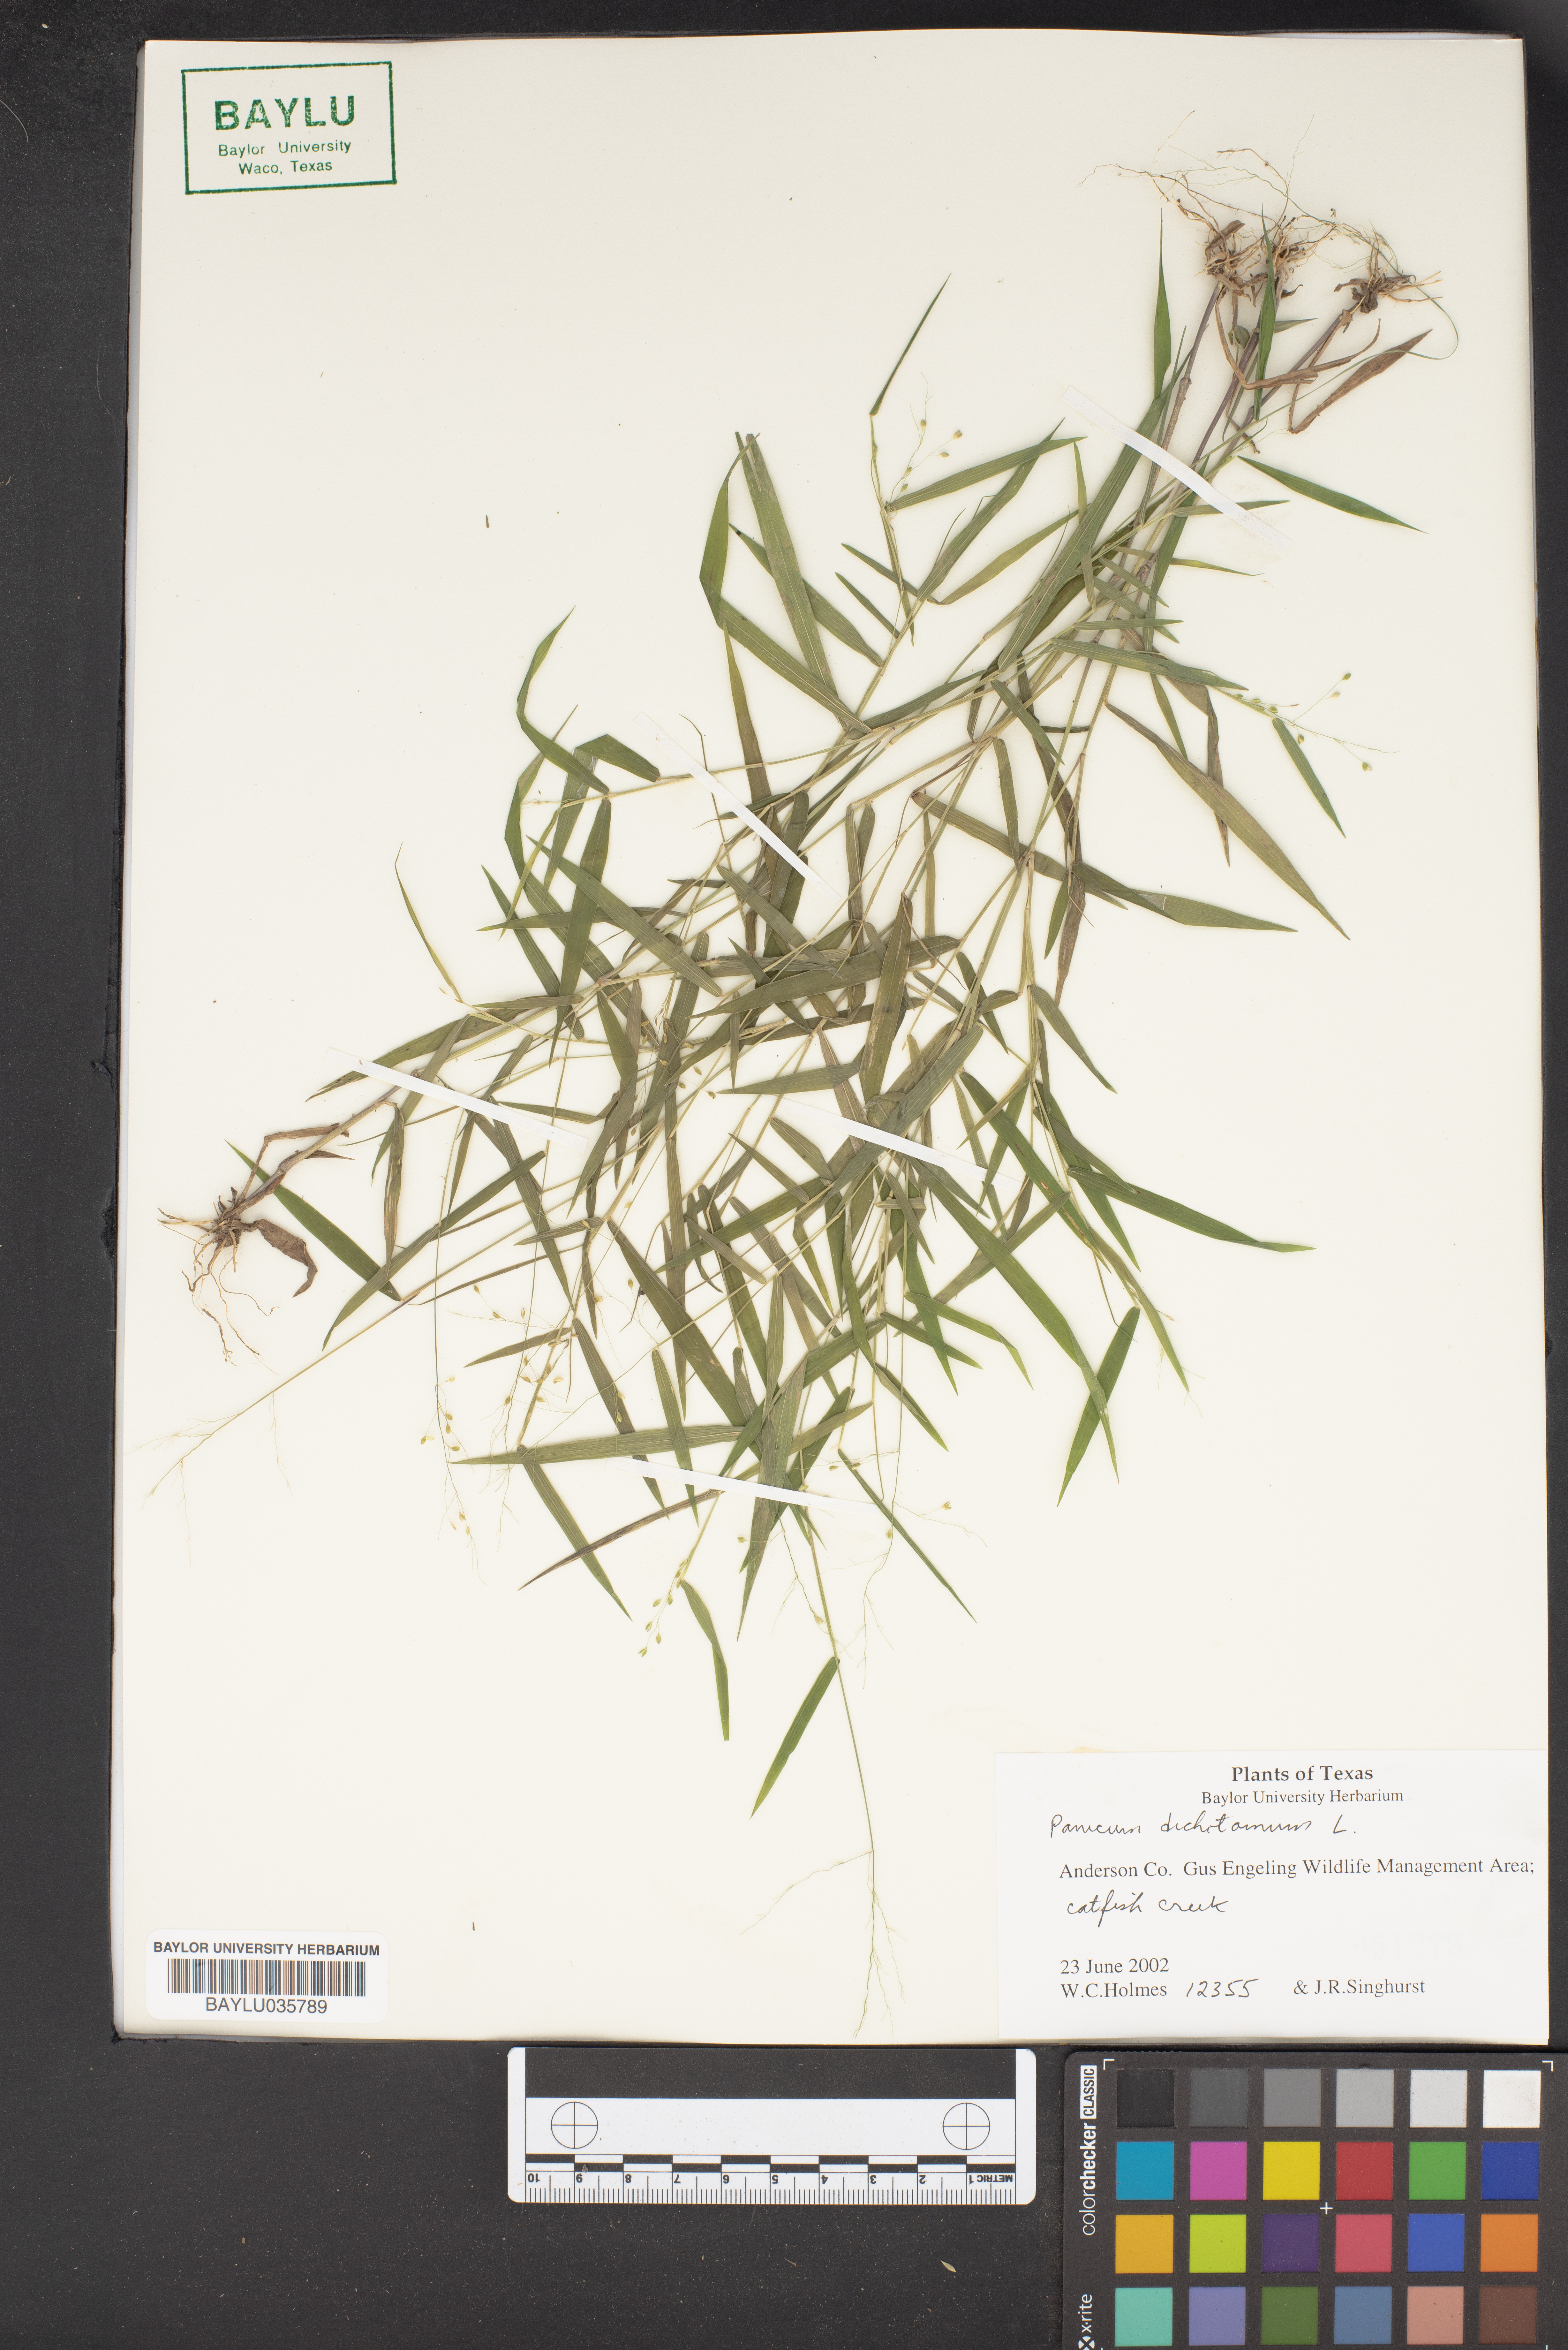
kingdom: Plantae
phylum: Tracheophyta
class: Liliopsida
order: Poales
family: Poaceae
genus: Dichanthelium
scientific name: Dichanthelium dichotomum
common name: Cypress panicgrass
